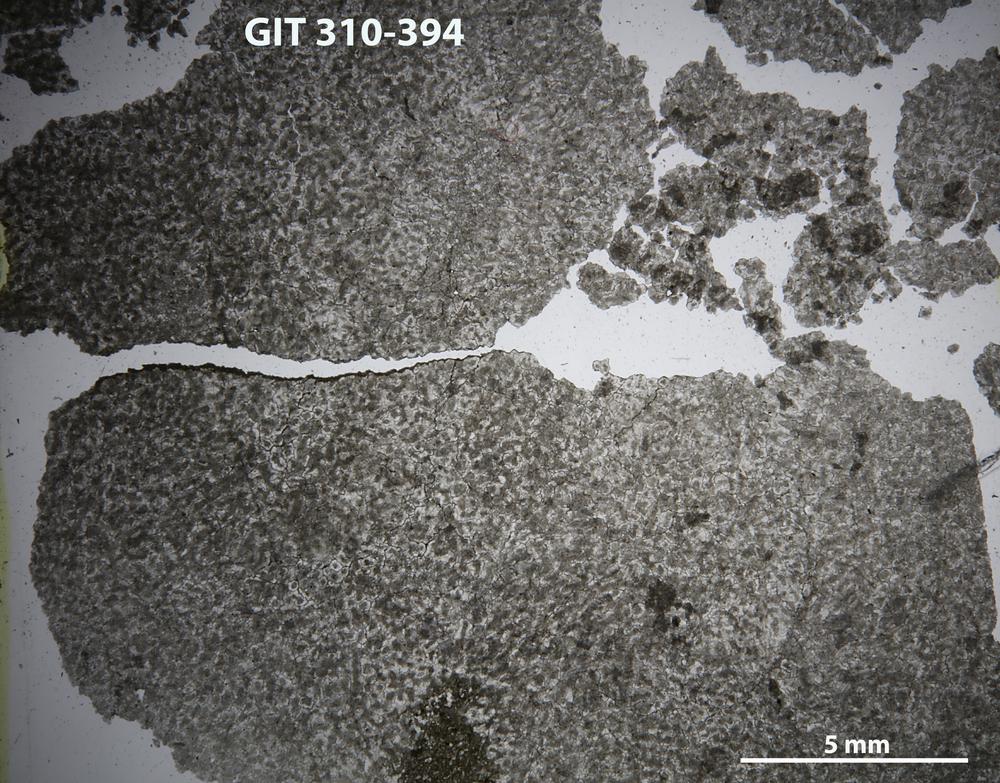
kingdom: Animalia
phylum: Porifera
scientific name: Porifera
